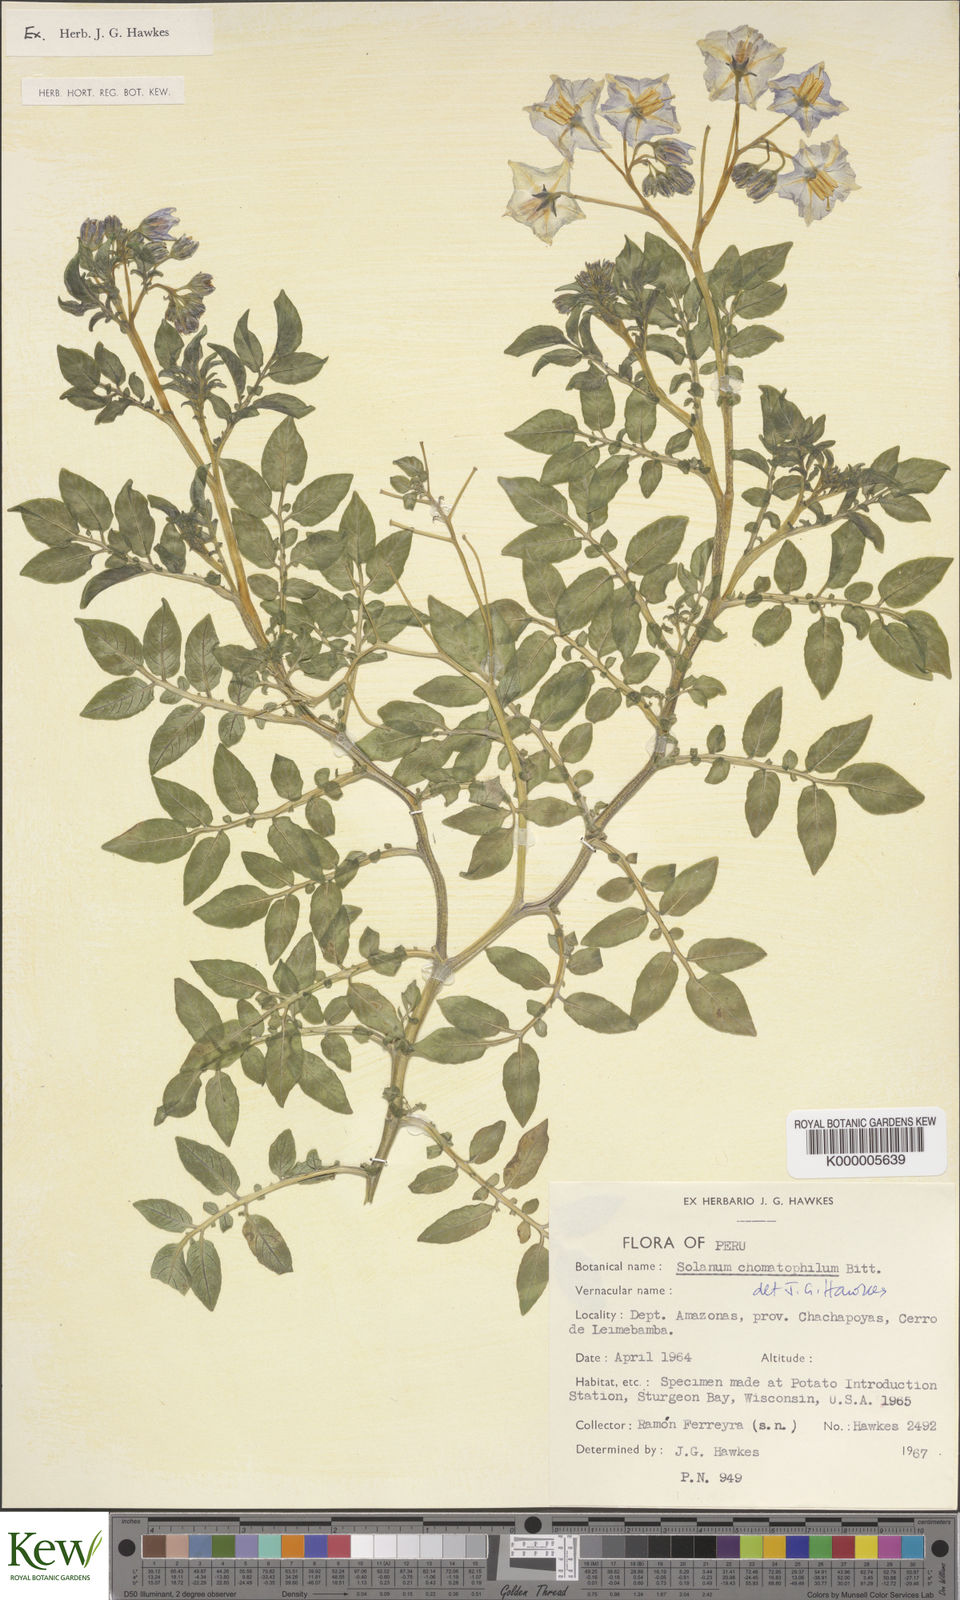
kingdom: Plantae
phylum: Tracheophyta
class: Magnoliopsida
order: Solanales
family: Solanaceae
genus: Solanum
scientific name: Solanum chomatophilum
